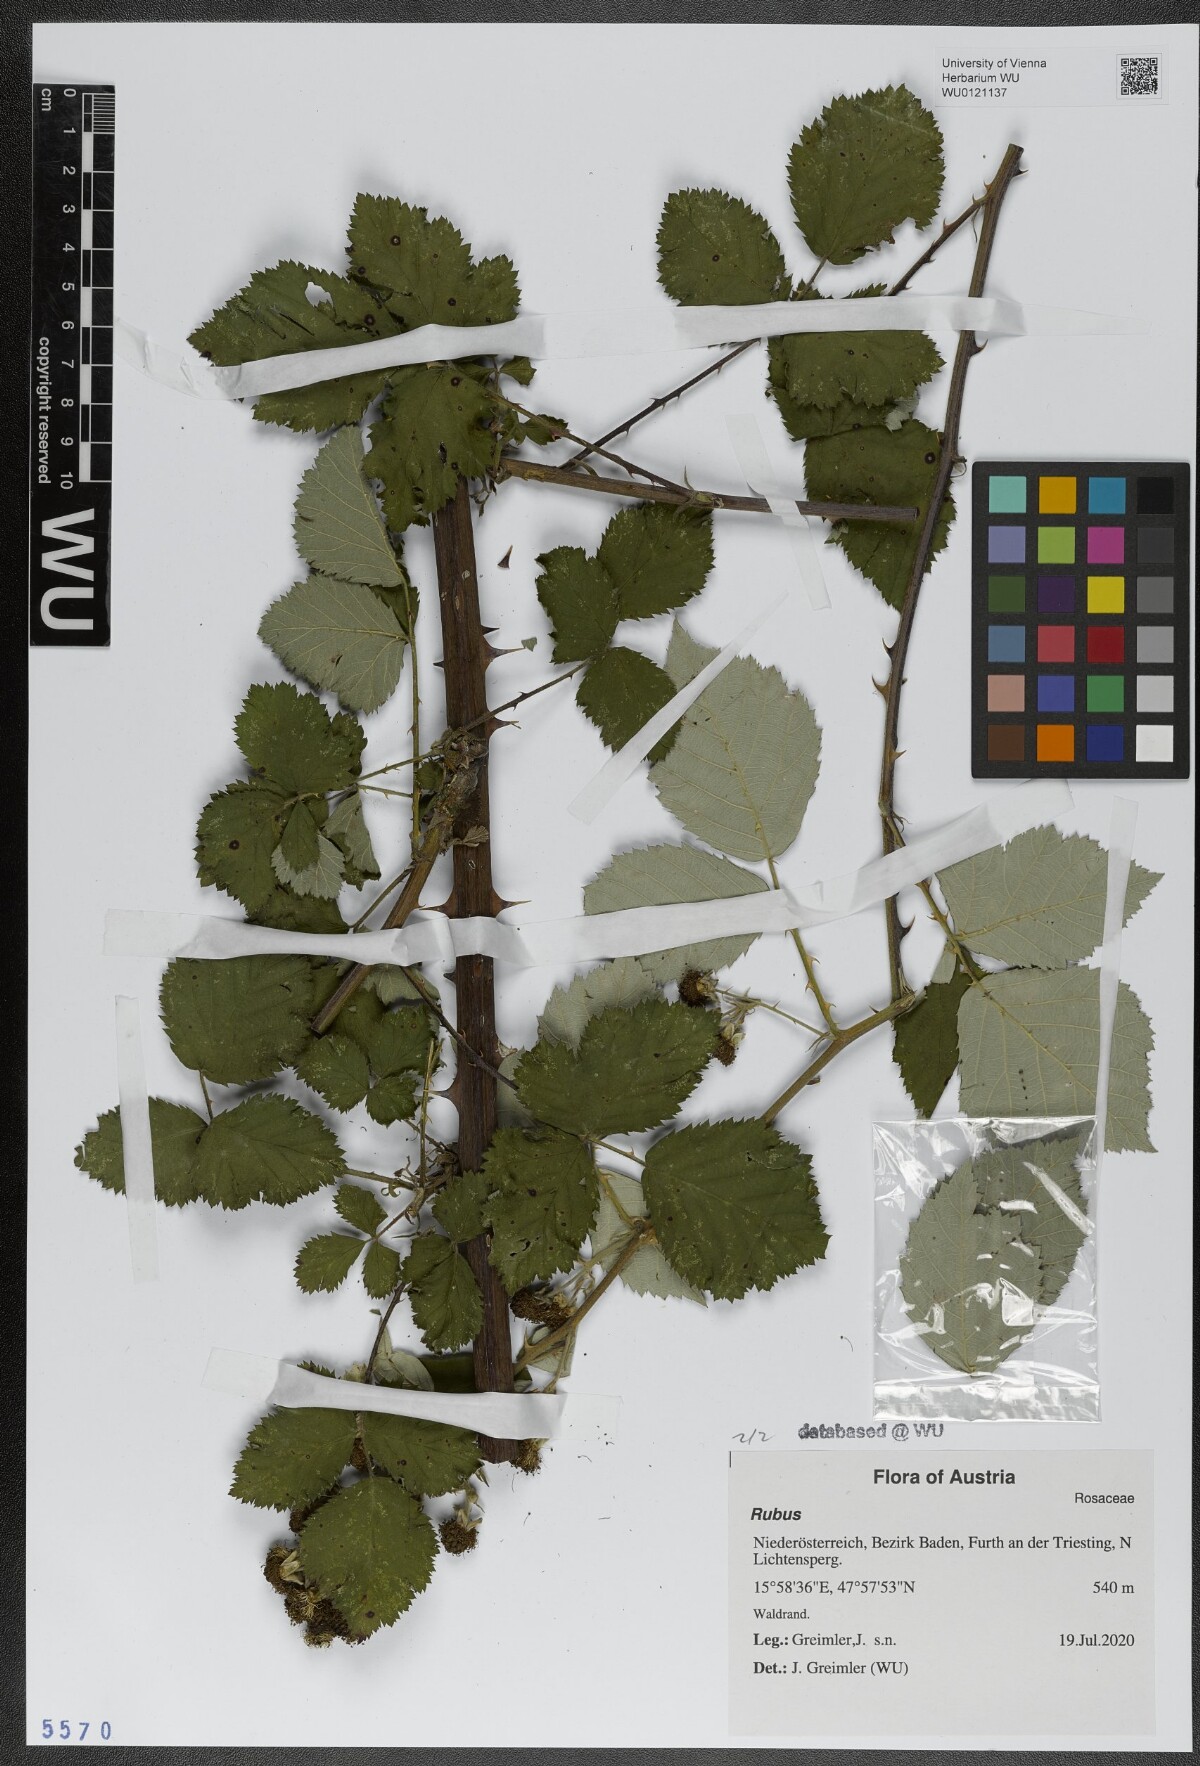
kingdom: Plantae
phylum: Tracheophyta
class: Magnoliopsida
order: Rosales
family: Rosaceae
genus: Rubus
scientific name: Rubus
